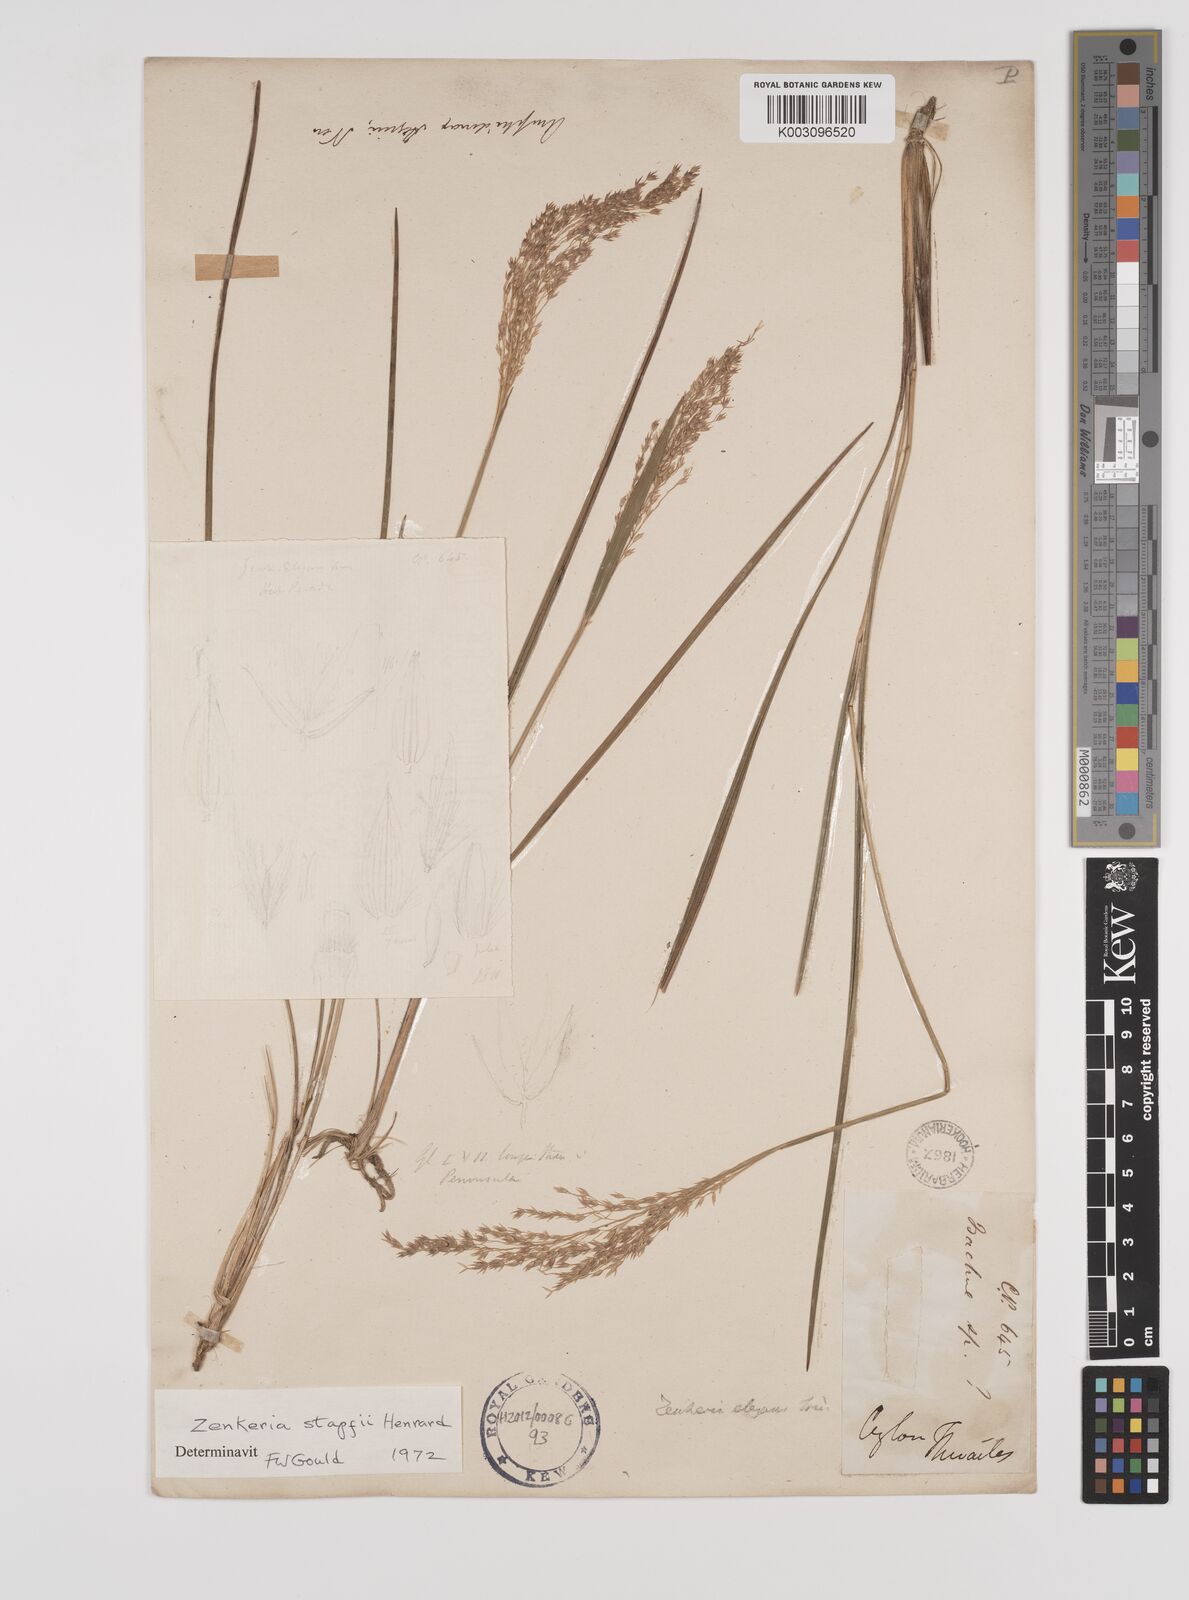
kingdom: Plantae
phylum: Tracheophyta
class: Liliopsida
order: Poales
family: Poaceae
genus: Zenkeria
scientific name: Zenkeria stapfii
